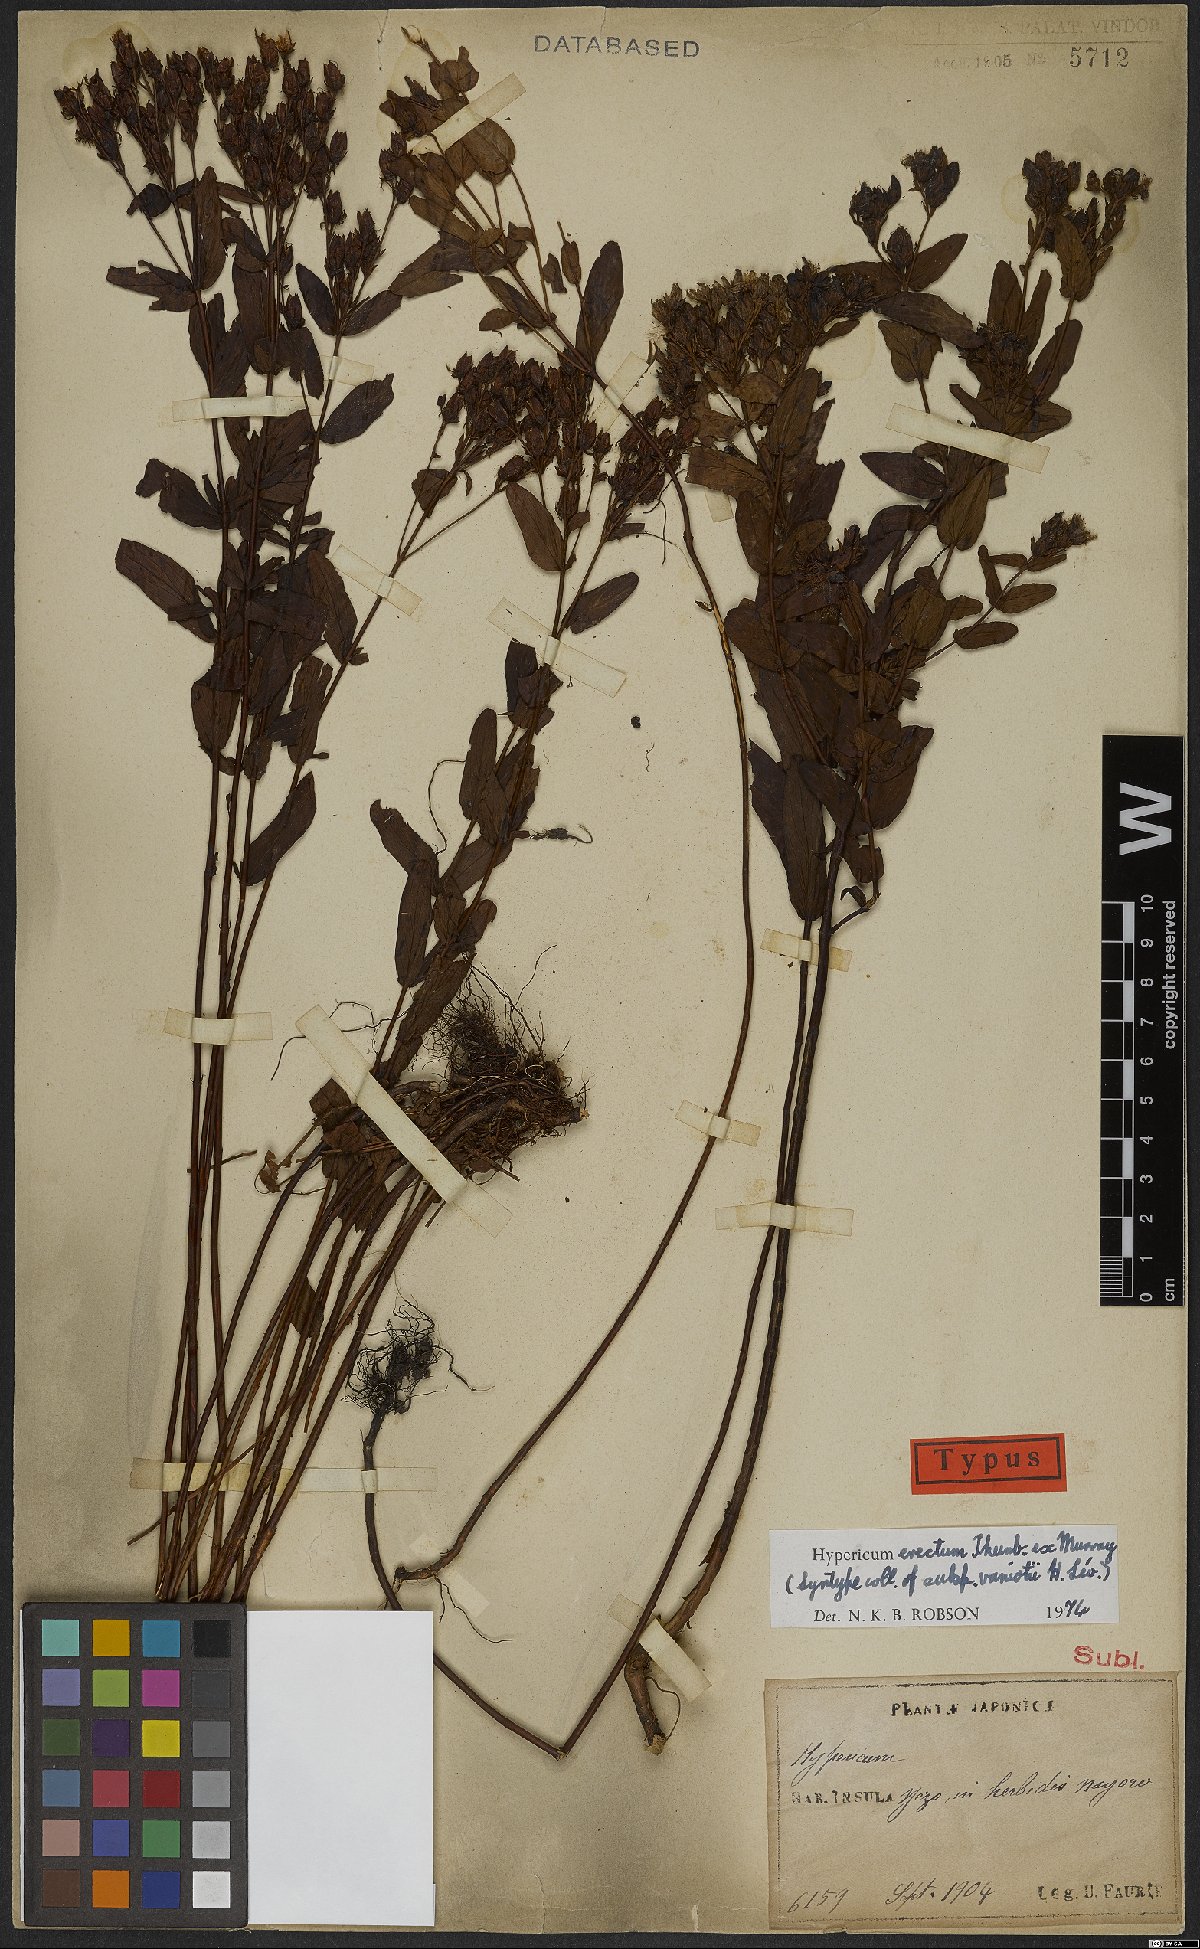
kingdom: Plantae
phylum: Tracheophyta
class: Magnoliopsida
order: Malpighiales
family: Hypericaceae
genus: Hypericum
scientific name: Hypericum erectum
